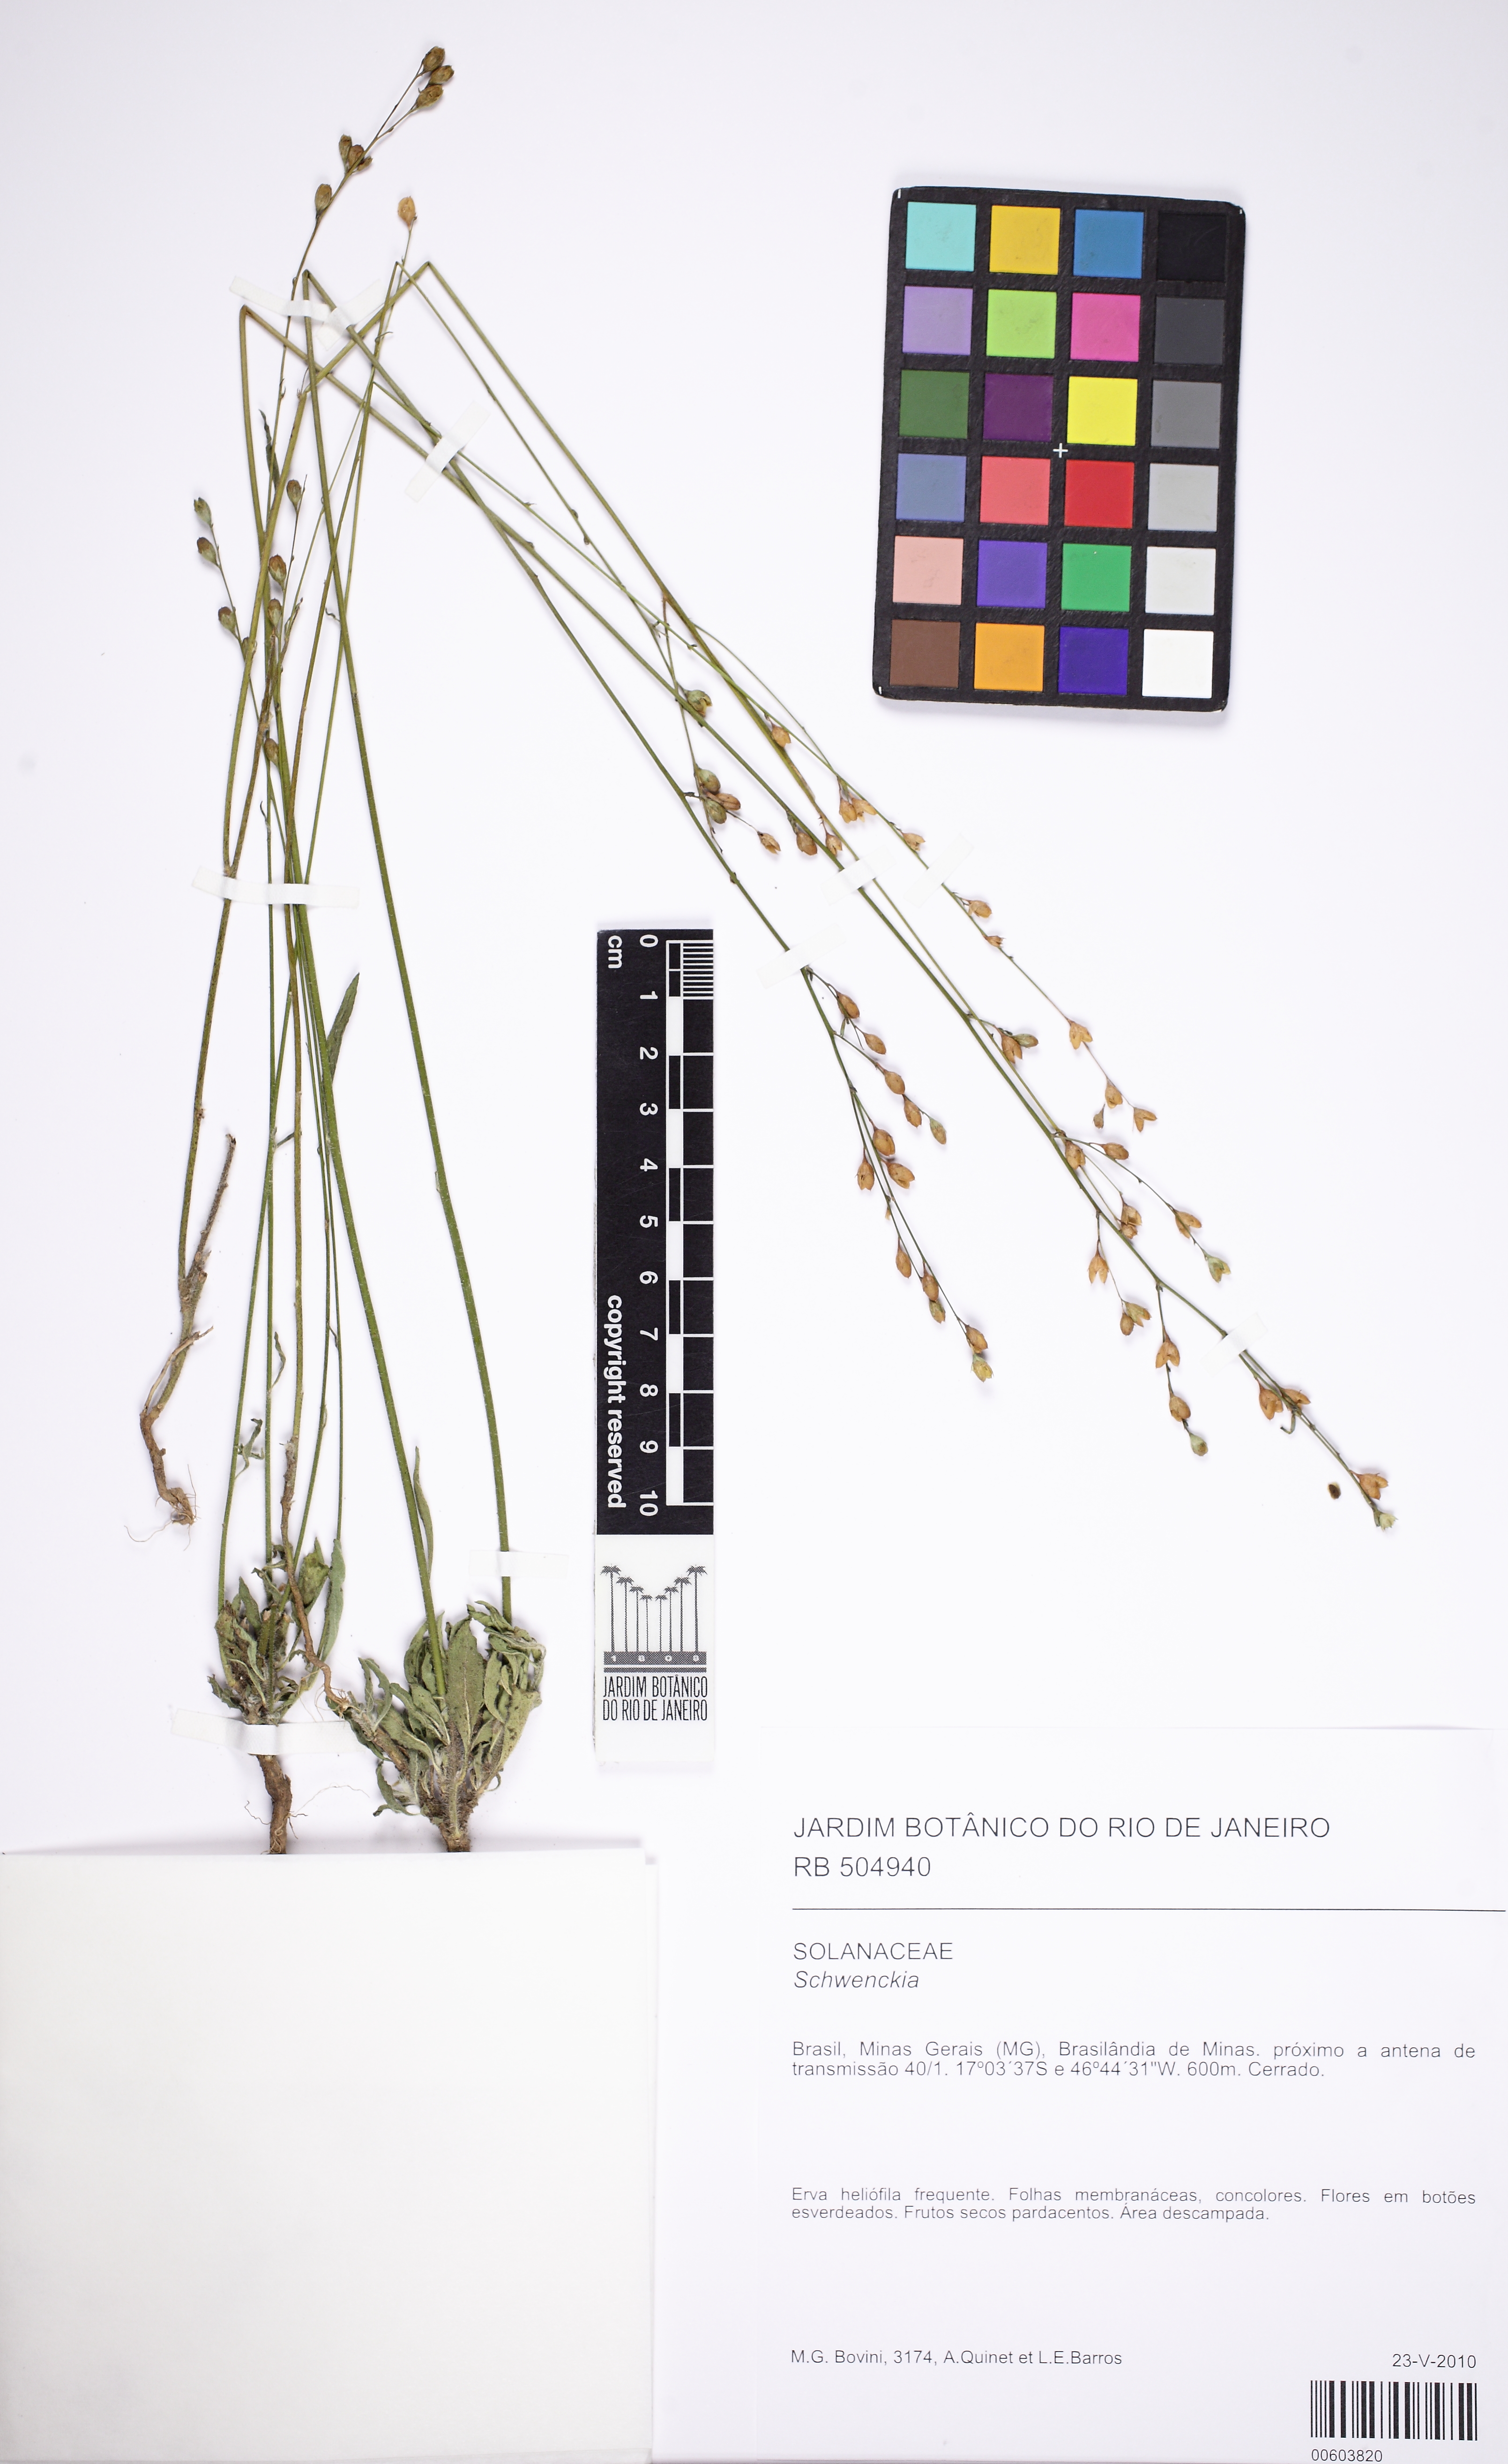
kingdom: Plantae
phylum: Tracheophyta
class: Magnoliopsida
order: Solanales
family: Solanaceae
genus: Schwenckia
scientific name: Schwenckia
